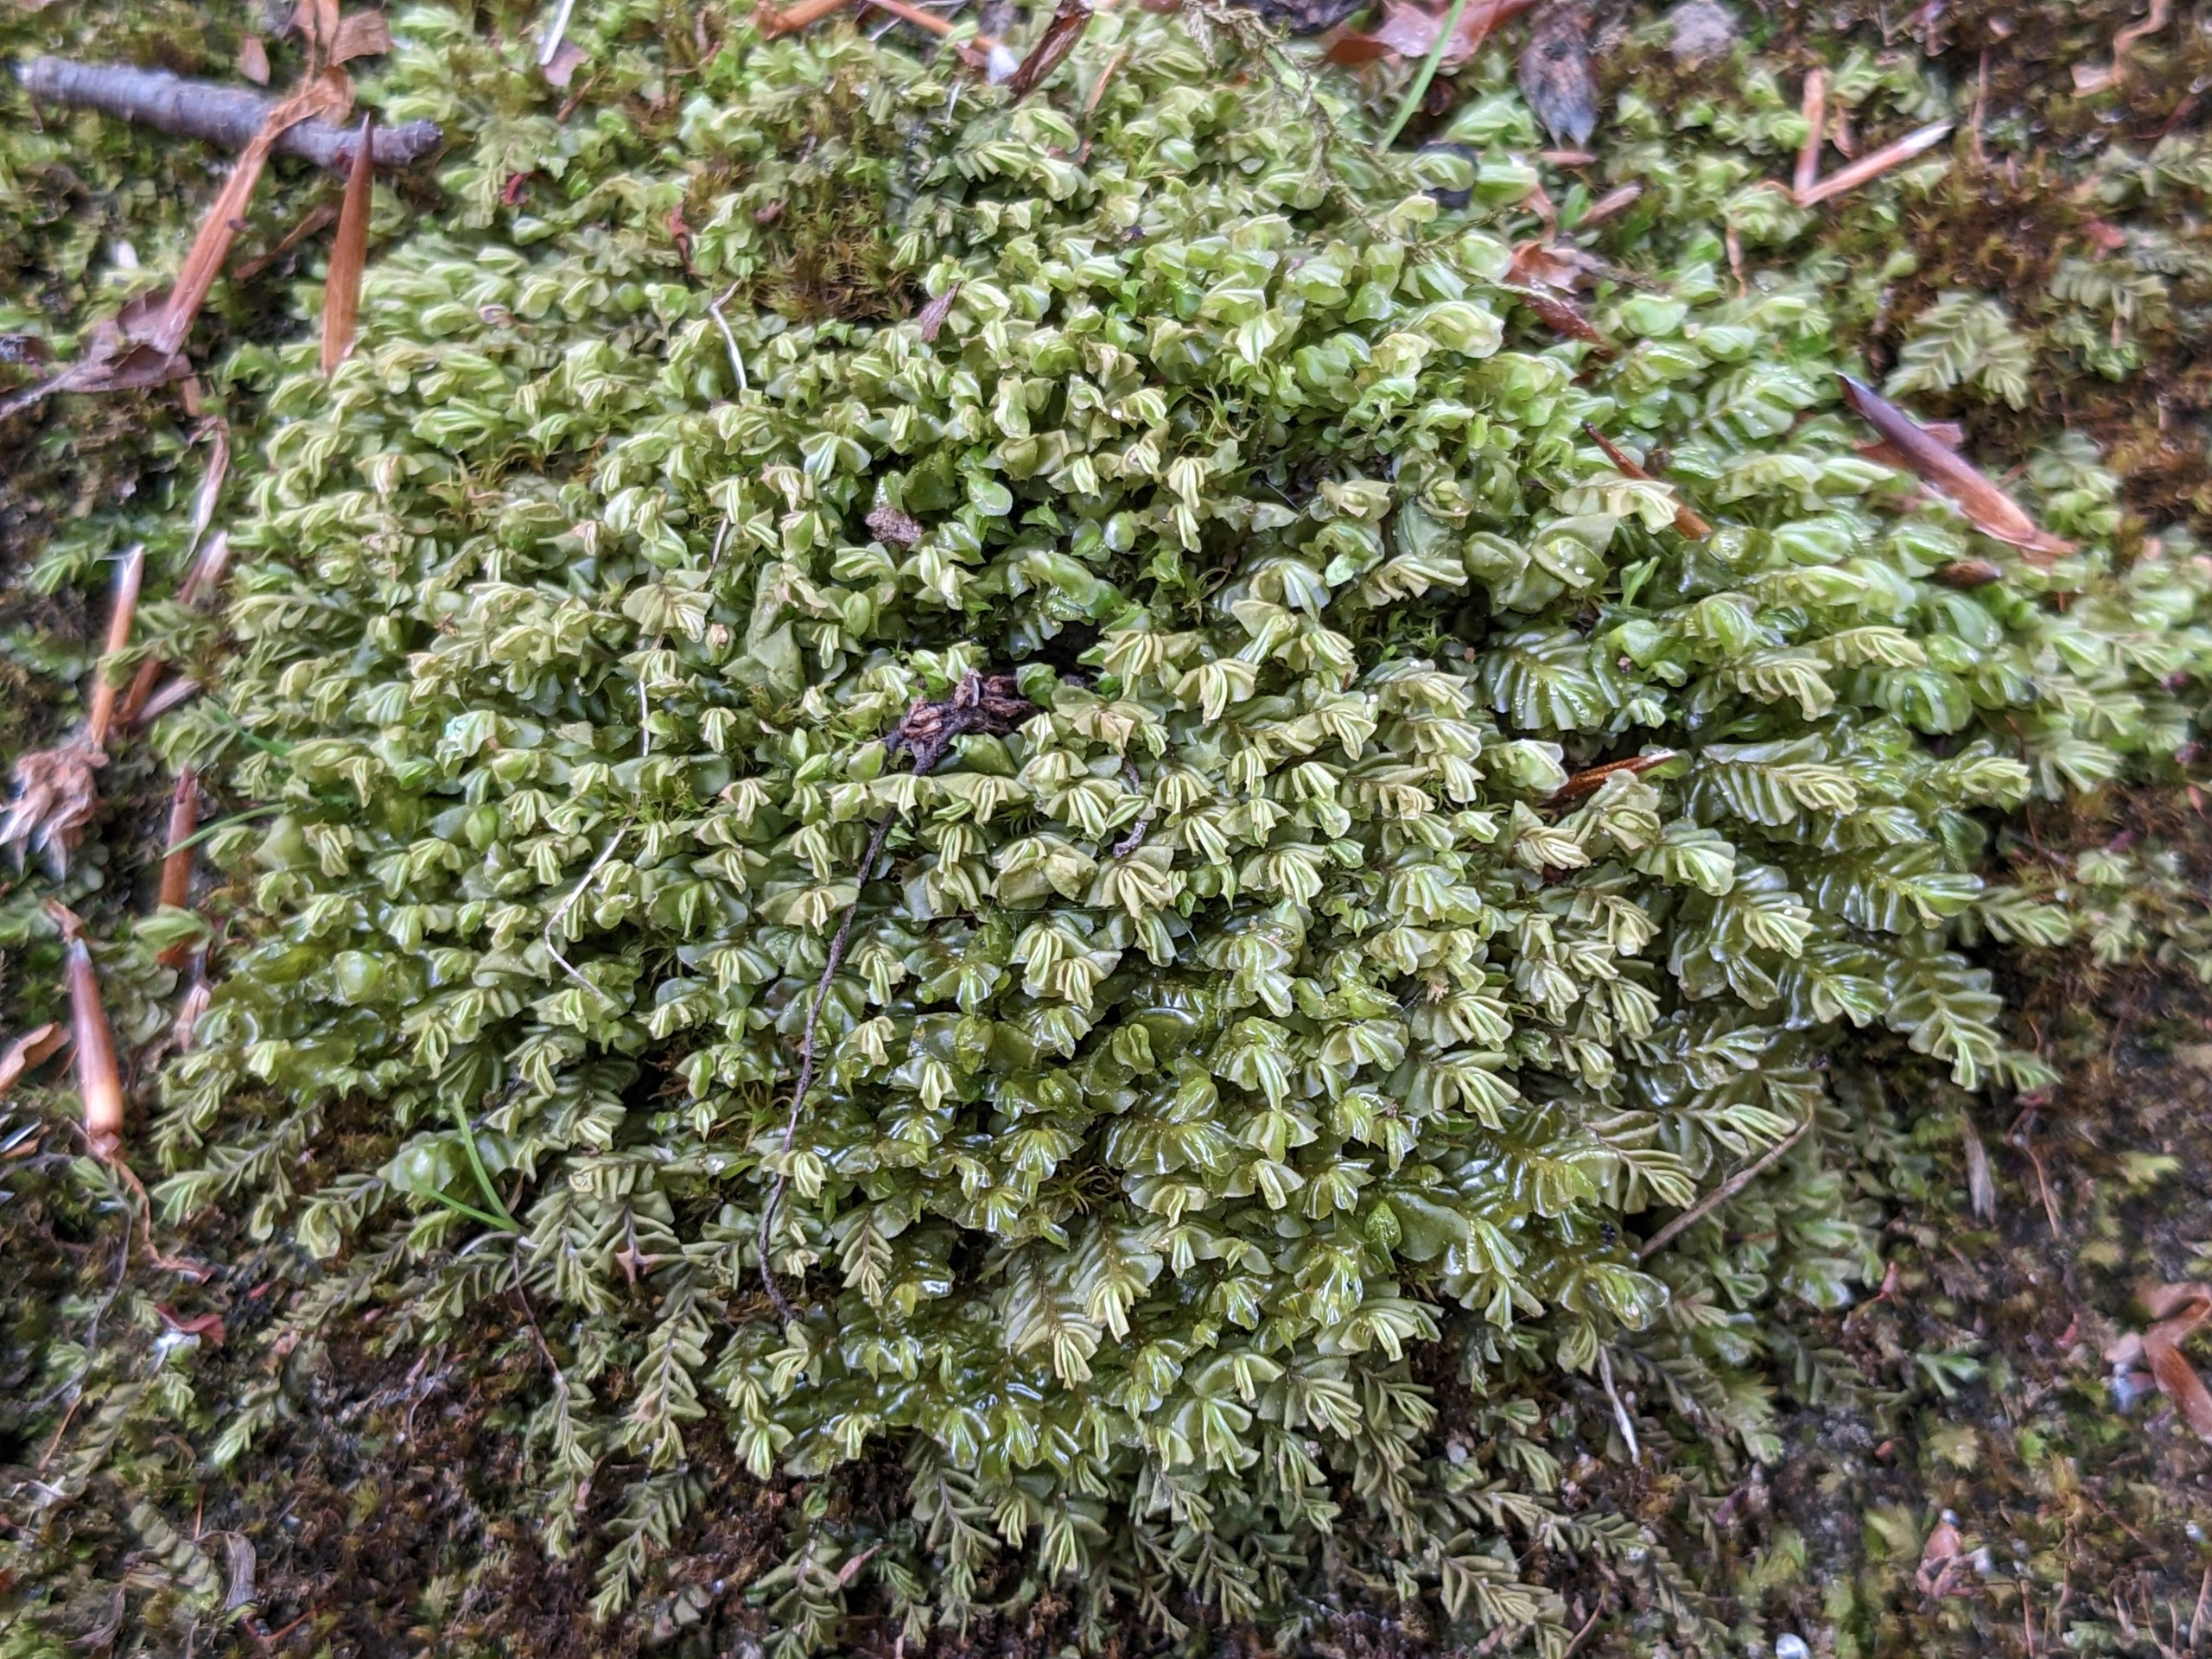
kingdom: Plantae
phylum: Marchantiophyta
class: Jungermanniopsida
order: Jungermanniales
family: Plagiochilaceae
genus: Plagiochila
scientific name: Plagiochila asplenioides
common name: Radeløv-hindeblad
